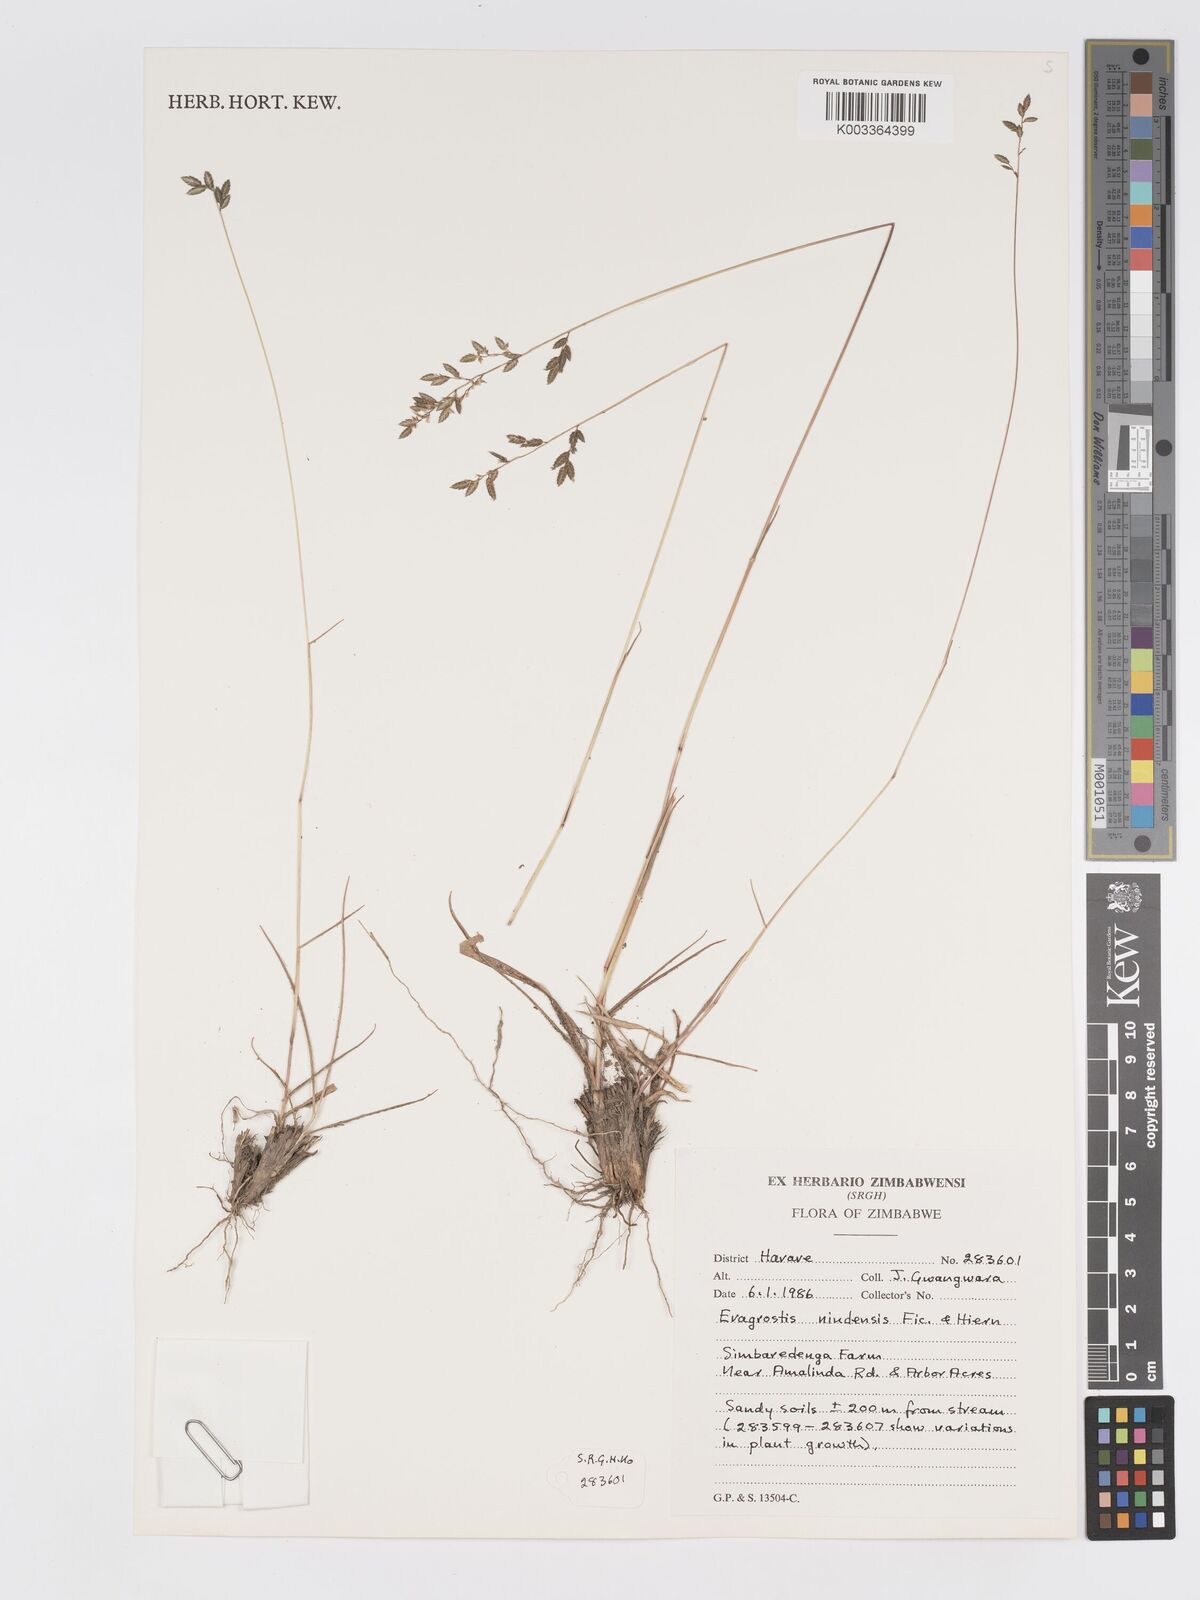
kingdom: Plantae
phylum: Tracheophyta
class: Liliopsida
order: Poales
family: Poaceae
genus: Eragrostis
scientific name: Eragrostis racemosa
